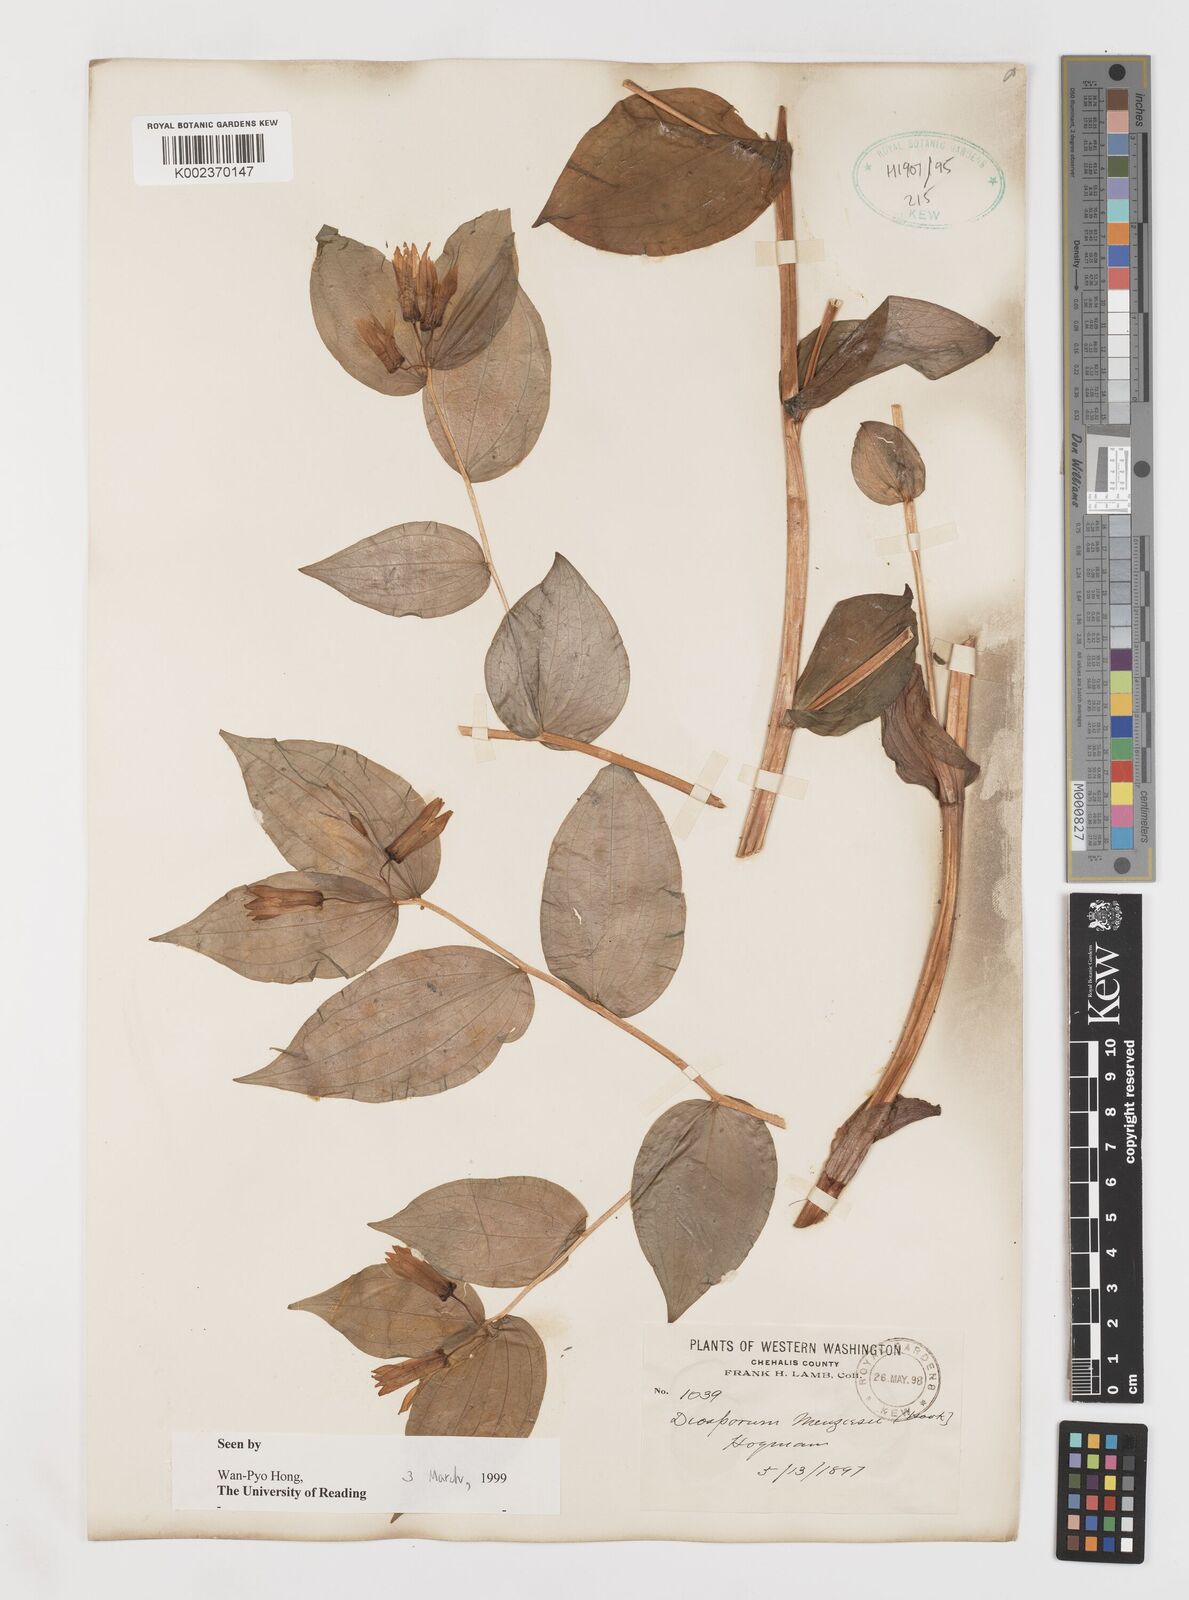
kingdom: Plantae
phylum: Tracheophyta
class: Liliopsida
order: Liliales
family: Liliaceae
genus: Prosartes
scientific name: Prosartes smithii
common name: Fairy-lantern
